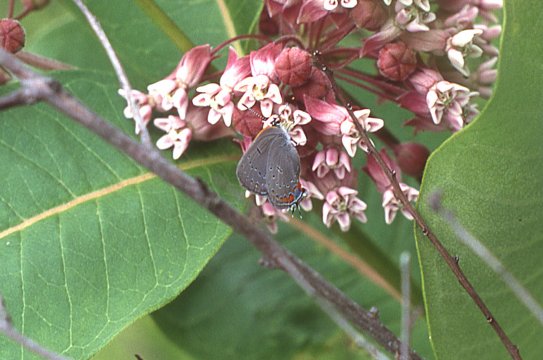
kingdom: Animalia
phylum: Arthropoda
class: Insecta
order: Lepidoptera
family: Lycaenidae
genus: Strymon
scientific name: Strymon acadica
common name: Acadian Hairstreak
